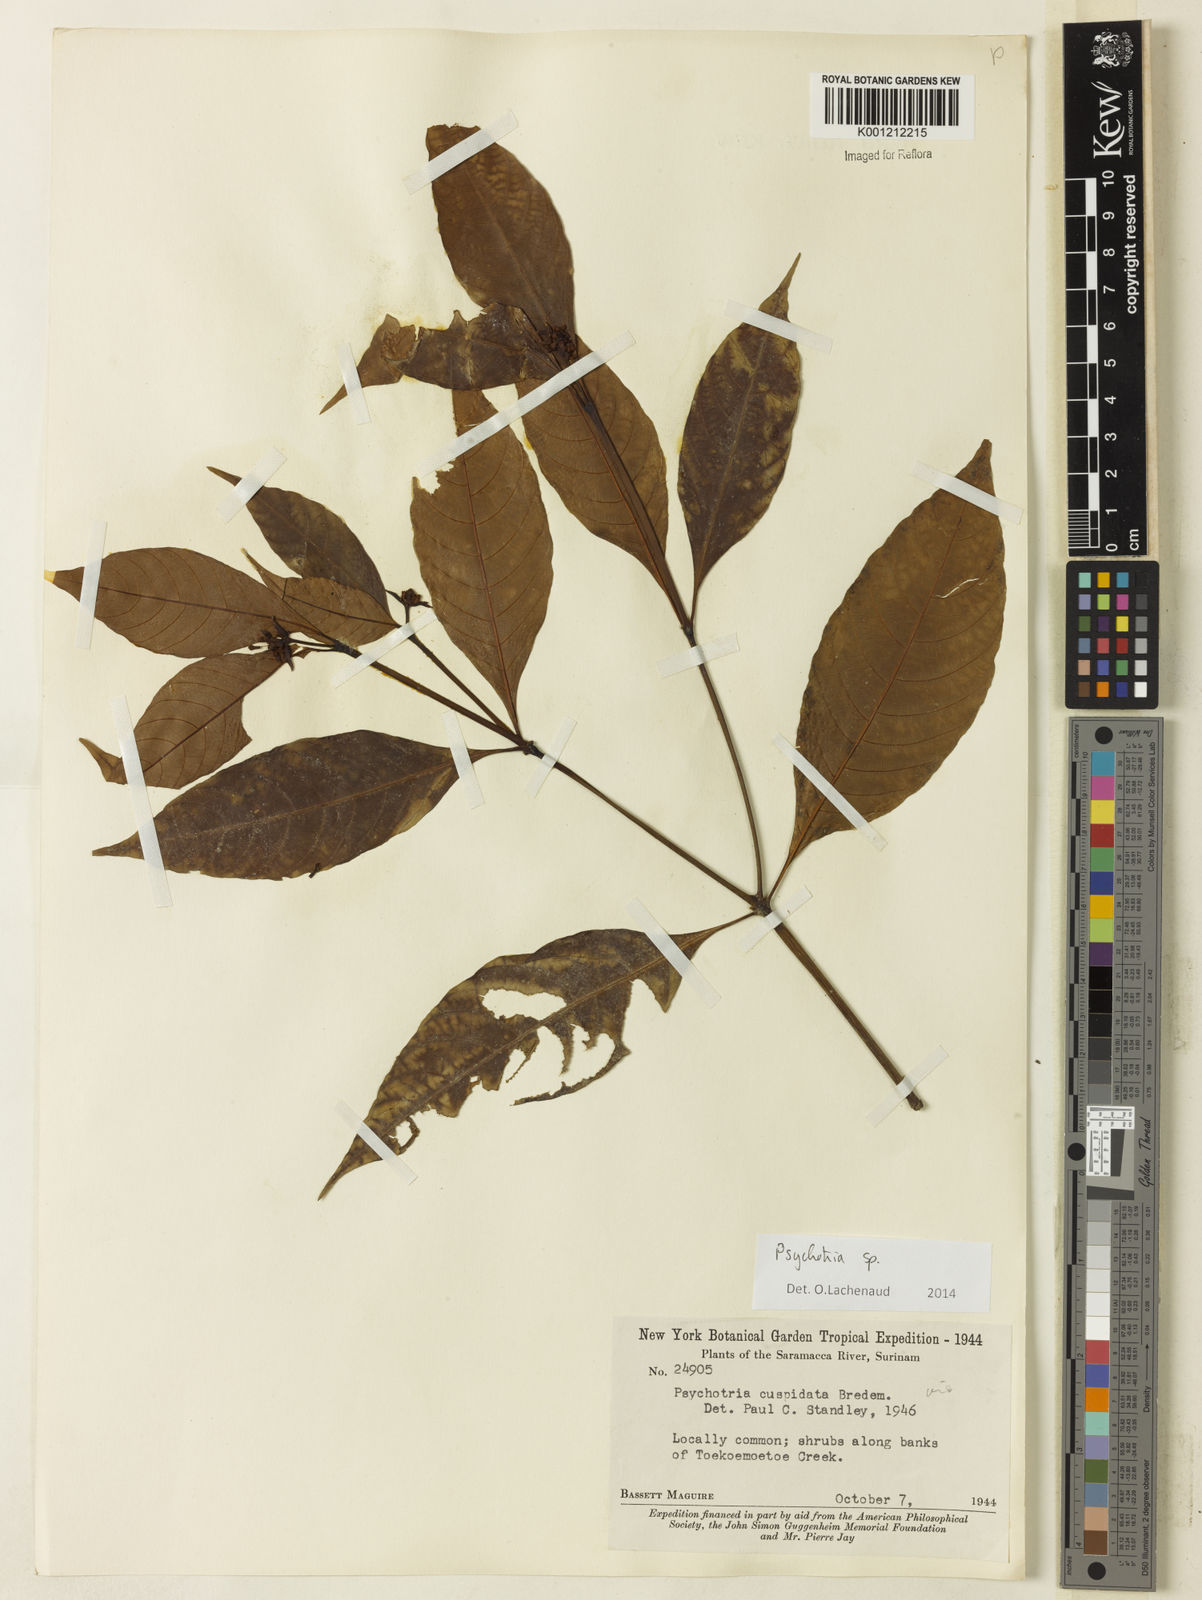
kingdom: Plantae
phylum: Tracheophyta
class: Magnoliopsida
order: Gentianales
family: Rubiaceae
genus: Psychotria
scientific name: Psychotria
